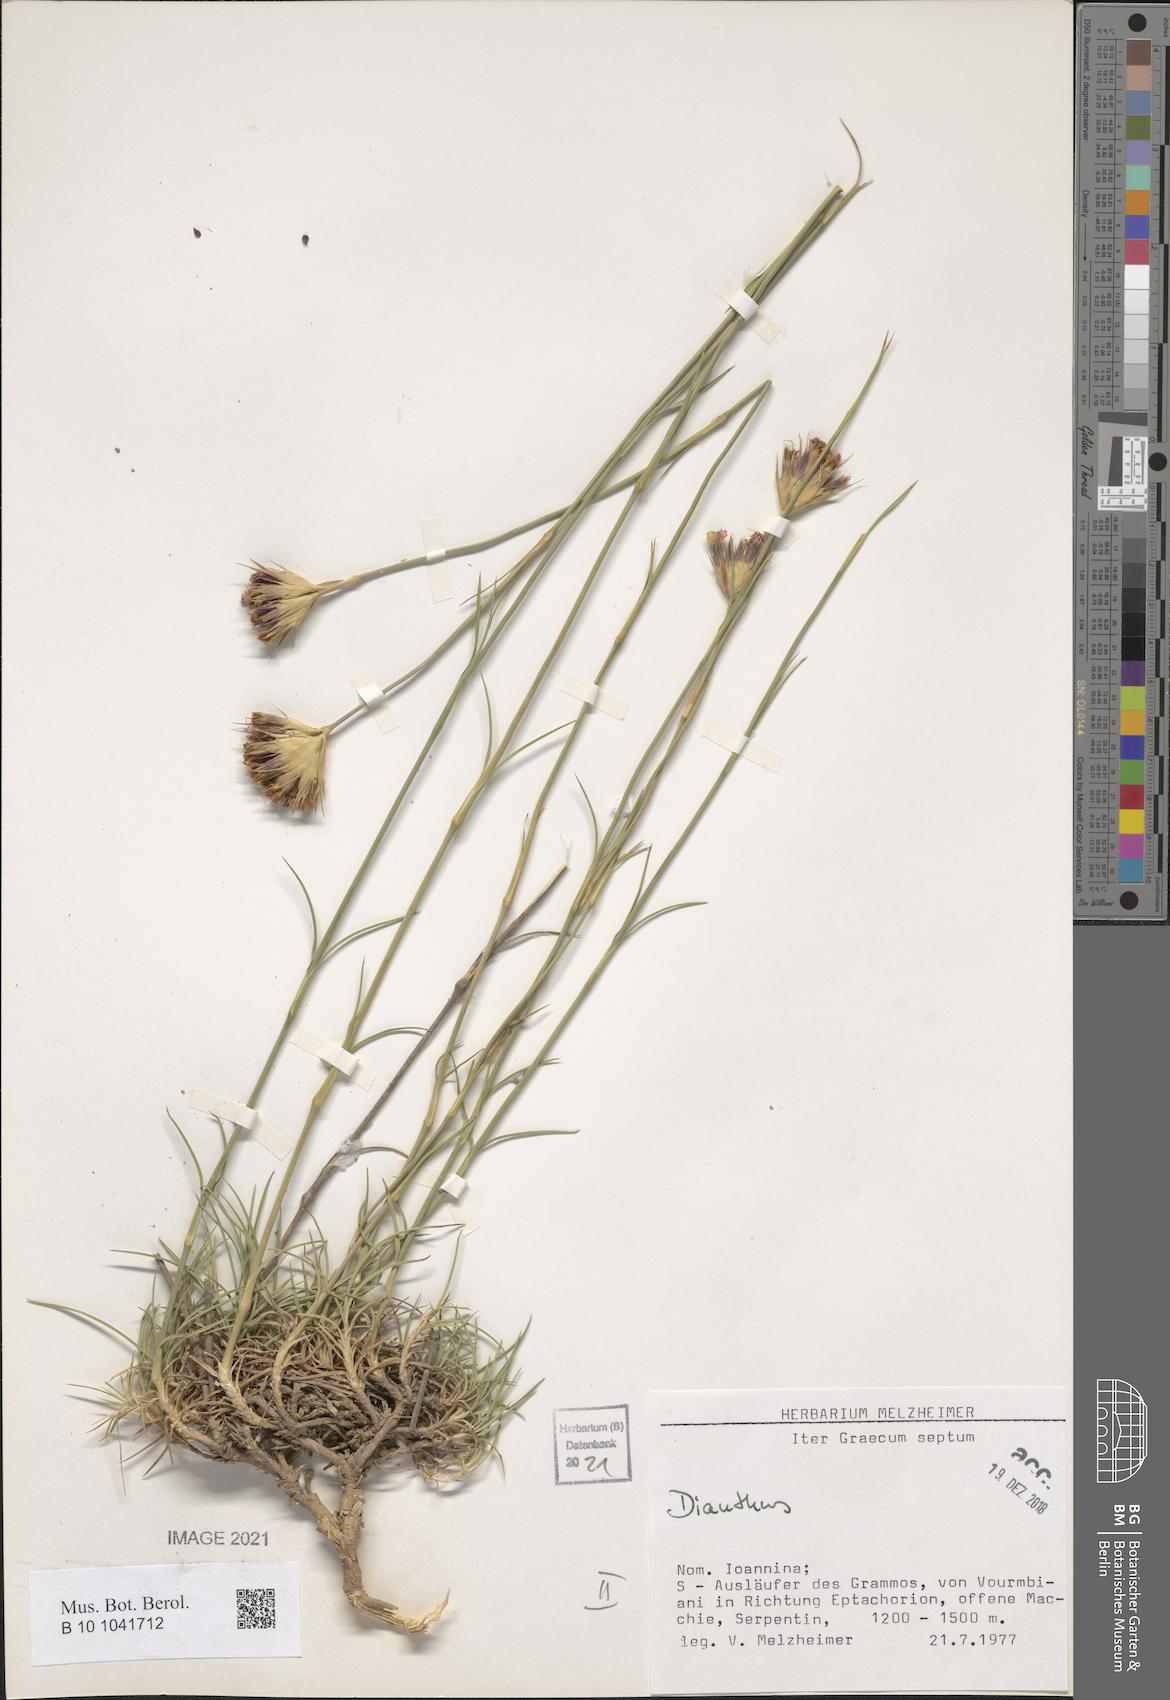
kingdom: Plantae
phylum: Tracheophyta
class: Magnoliopsida
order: Caryophyllales
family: Caryophyllaceae
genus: Dianthus
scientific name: Dianthus
